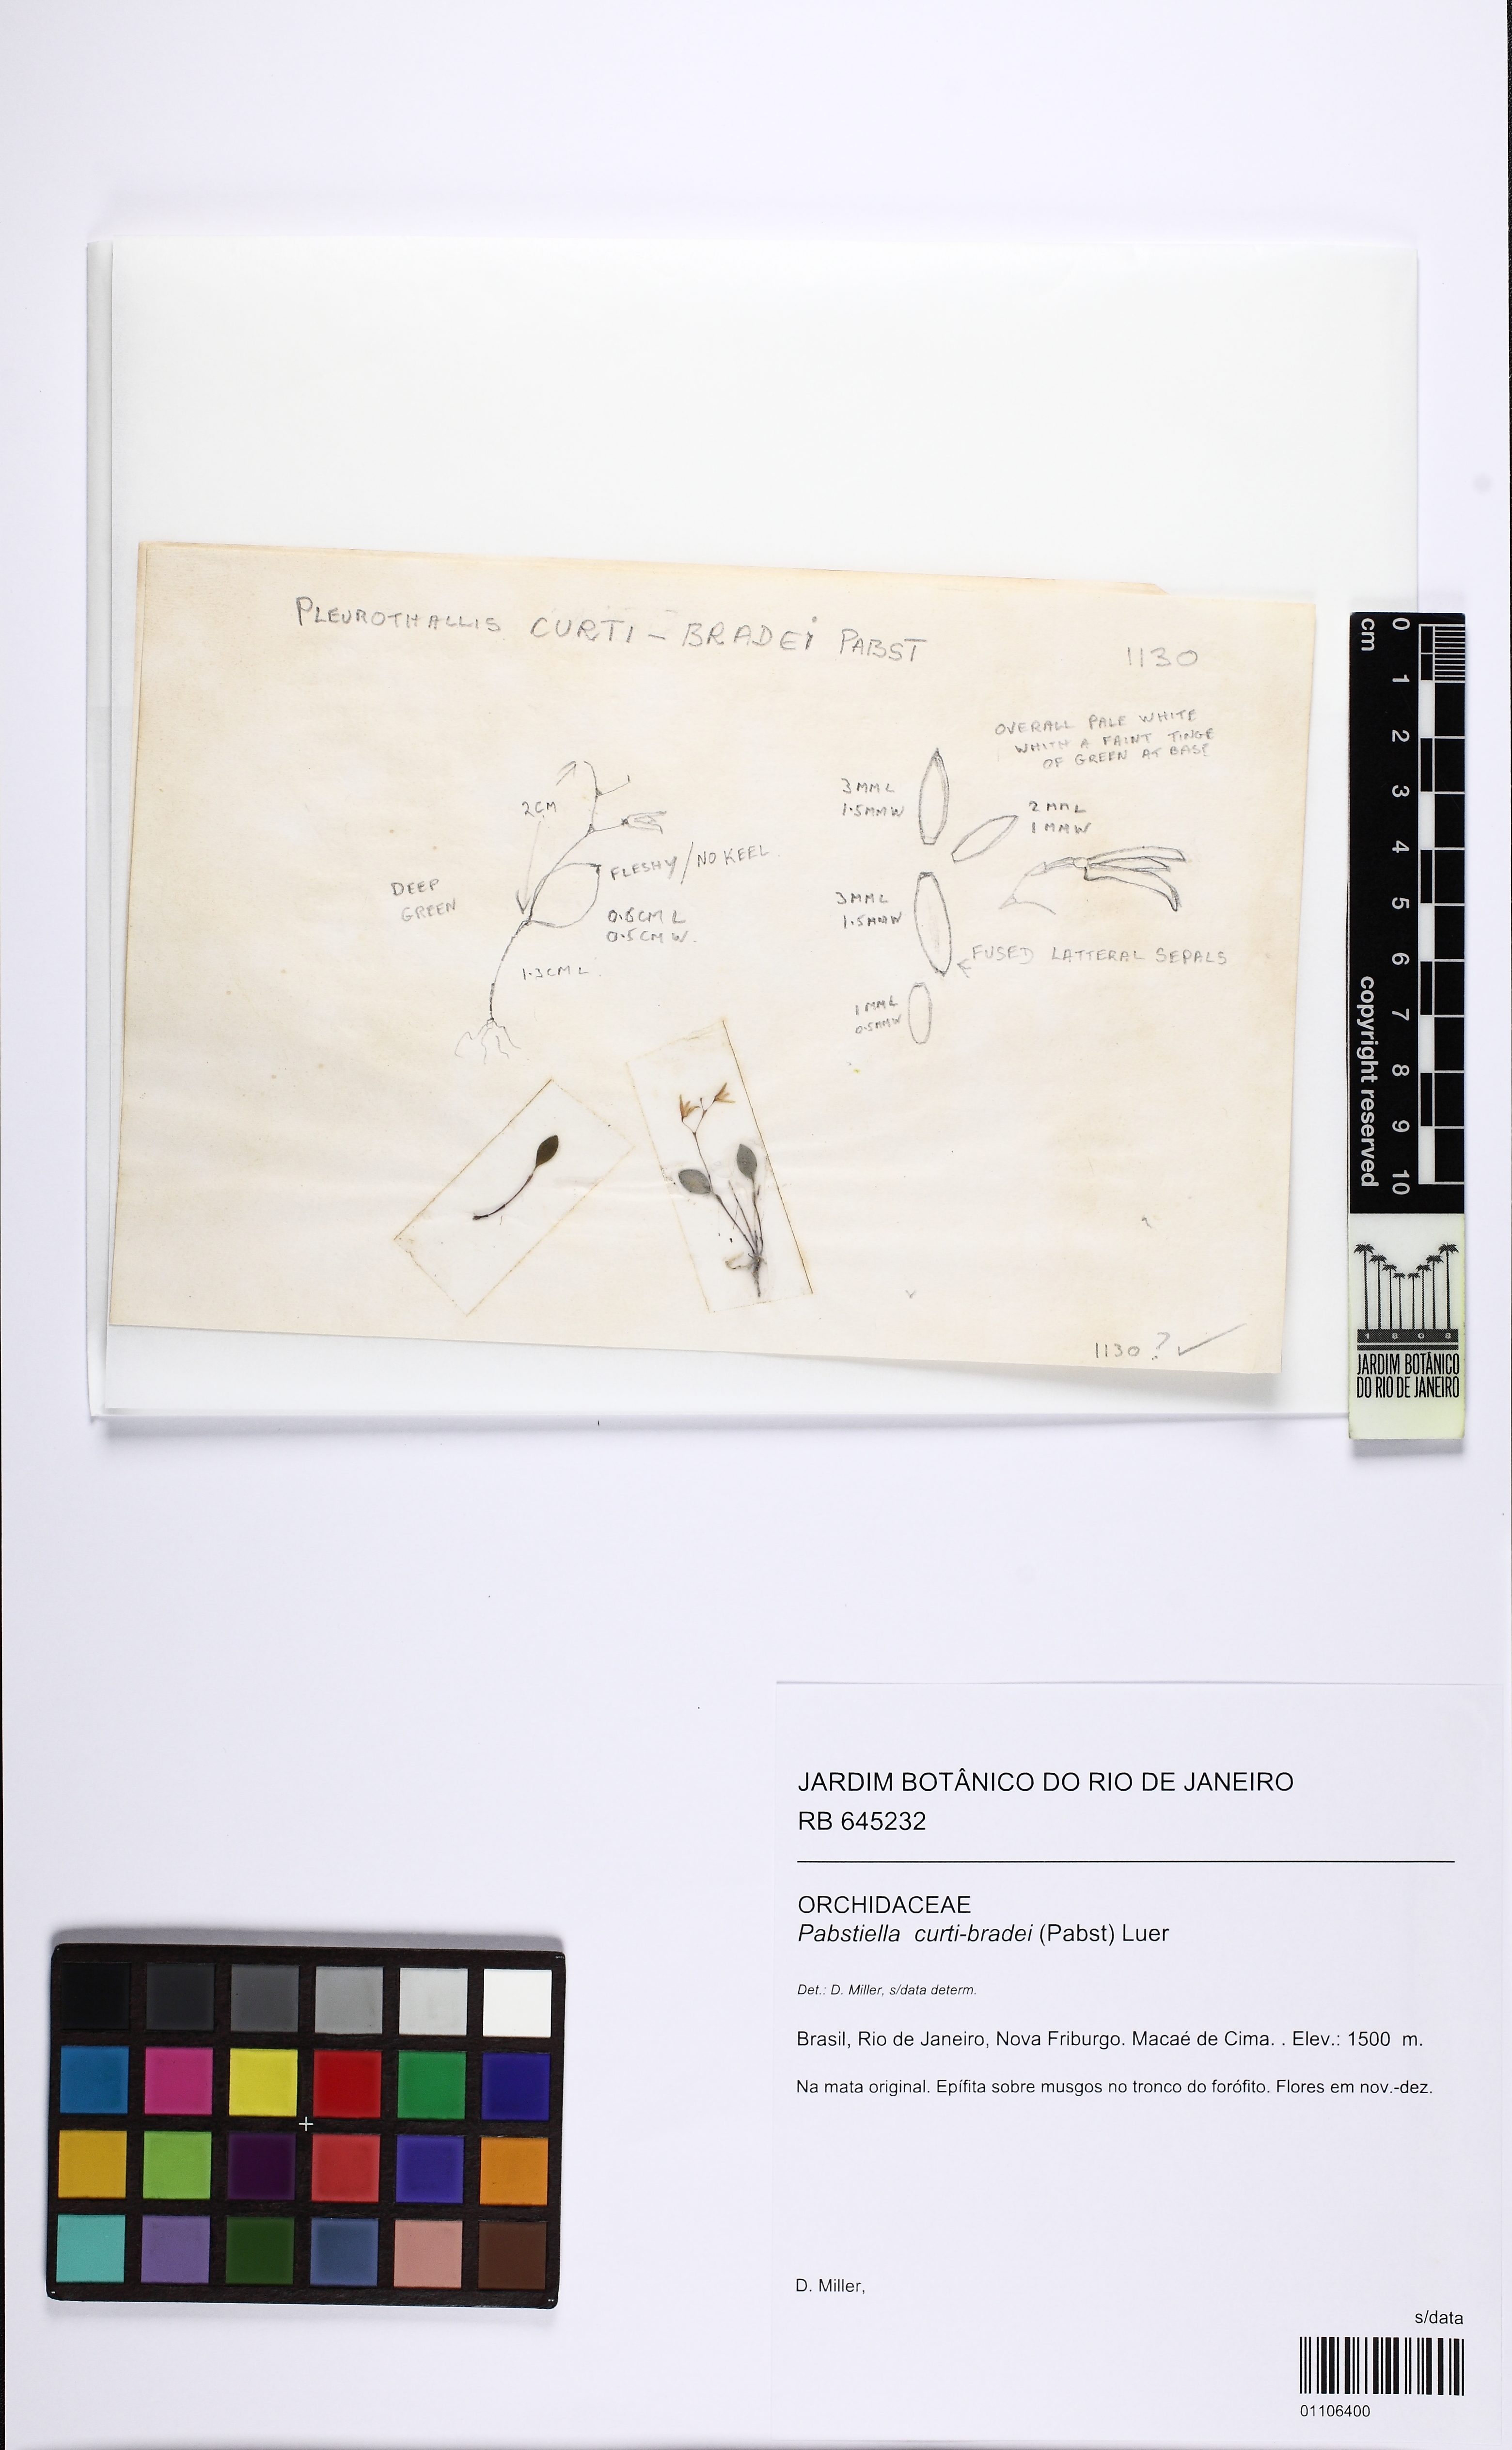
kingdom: Plantae
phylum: Tracheophyta
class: Liliopsida
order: Asparagales
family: Orchidaceae
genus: Pabstiella
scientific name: Pabstiella curti-bradei
